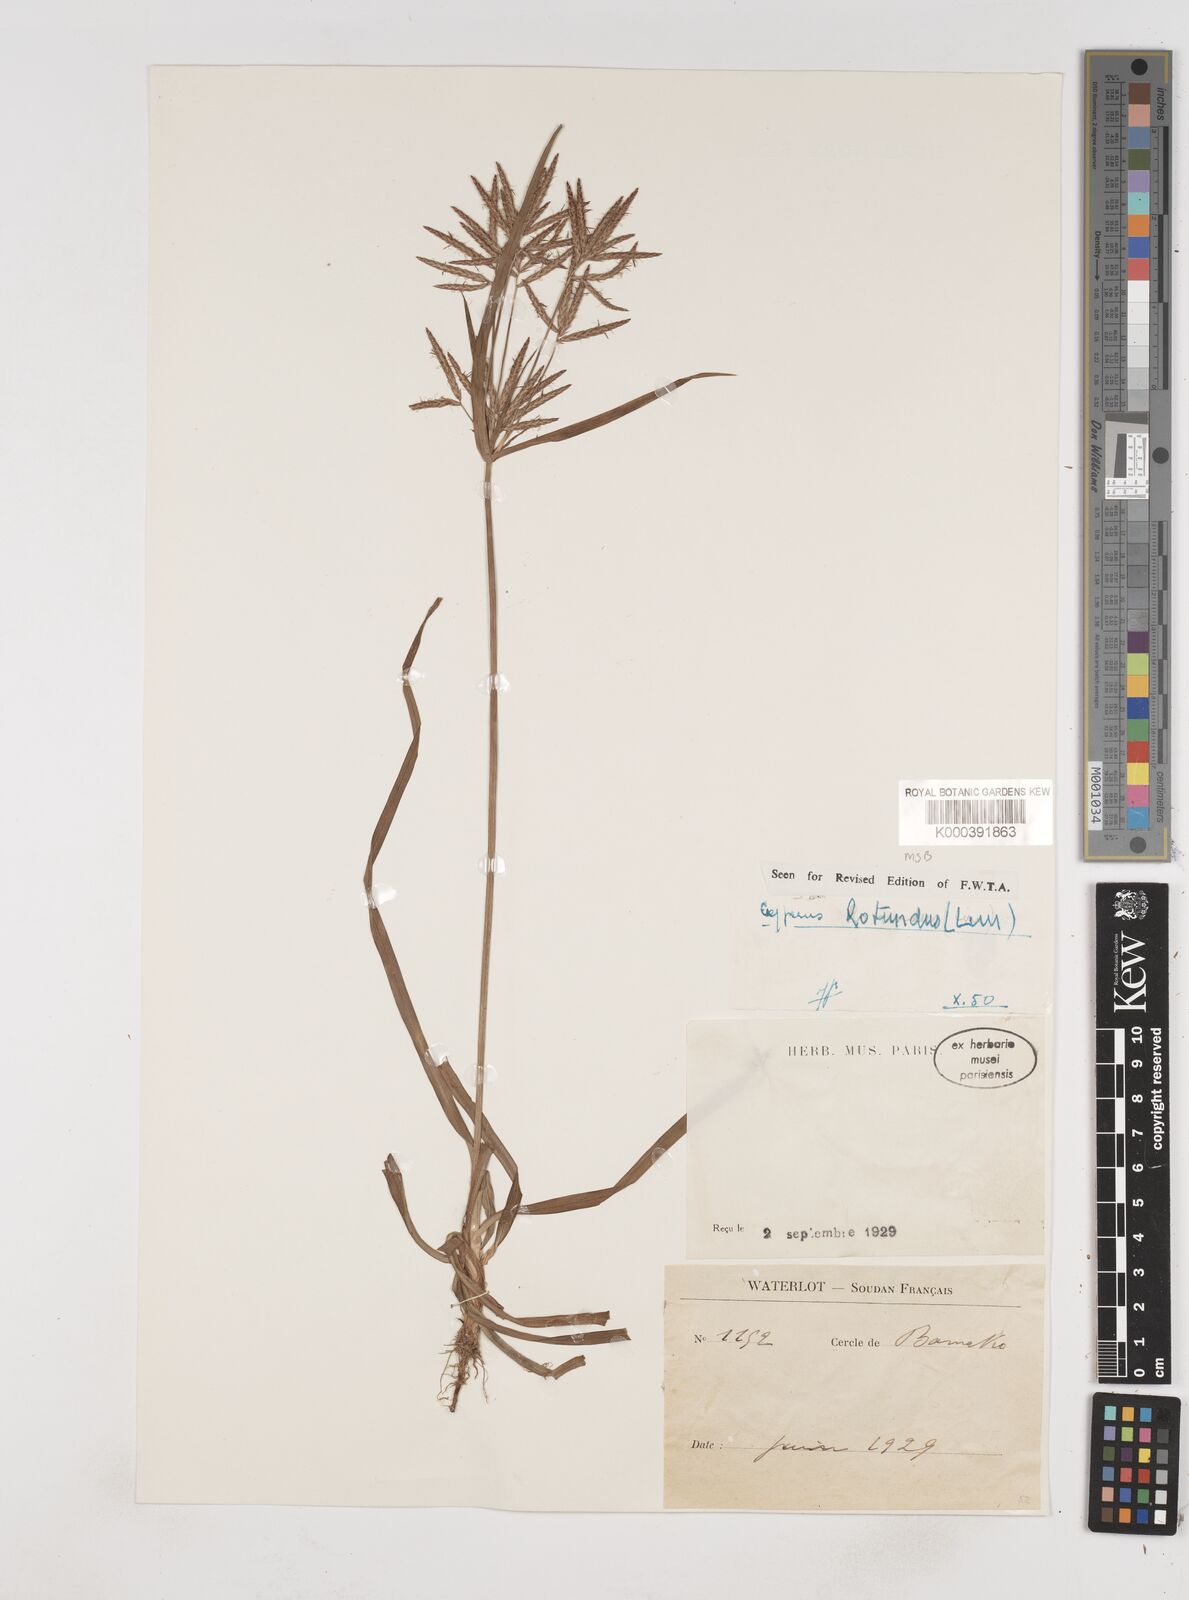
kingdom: Plantae
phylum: Tracheophyta
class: Liliopsida
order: Poales
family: Cyperaceae
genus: Cyperus
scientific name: Cyperus rotundus
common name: Nutgrass
